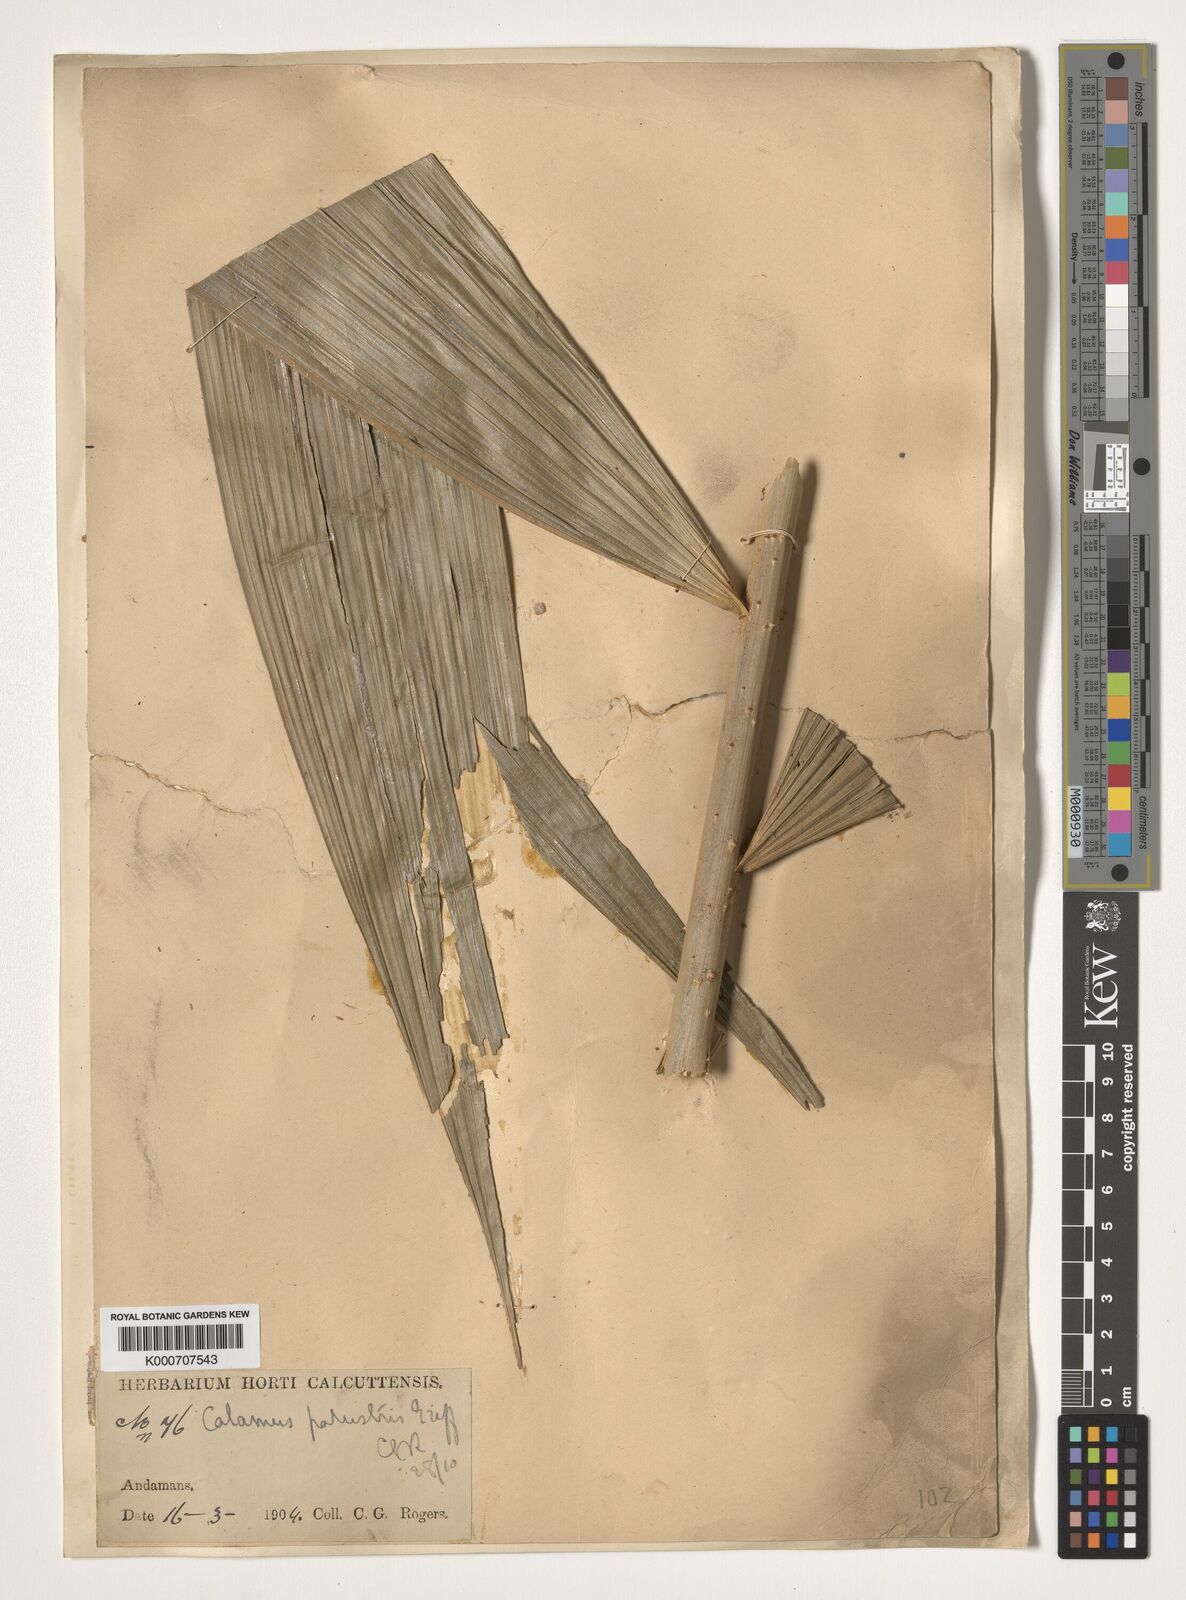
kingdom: Plantae
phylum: Tracheophyta
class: Liliopsida
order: Arecales
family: Arecaceae
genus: Calamus
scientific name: Calamus latifolius
